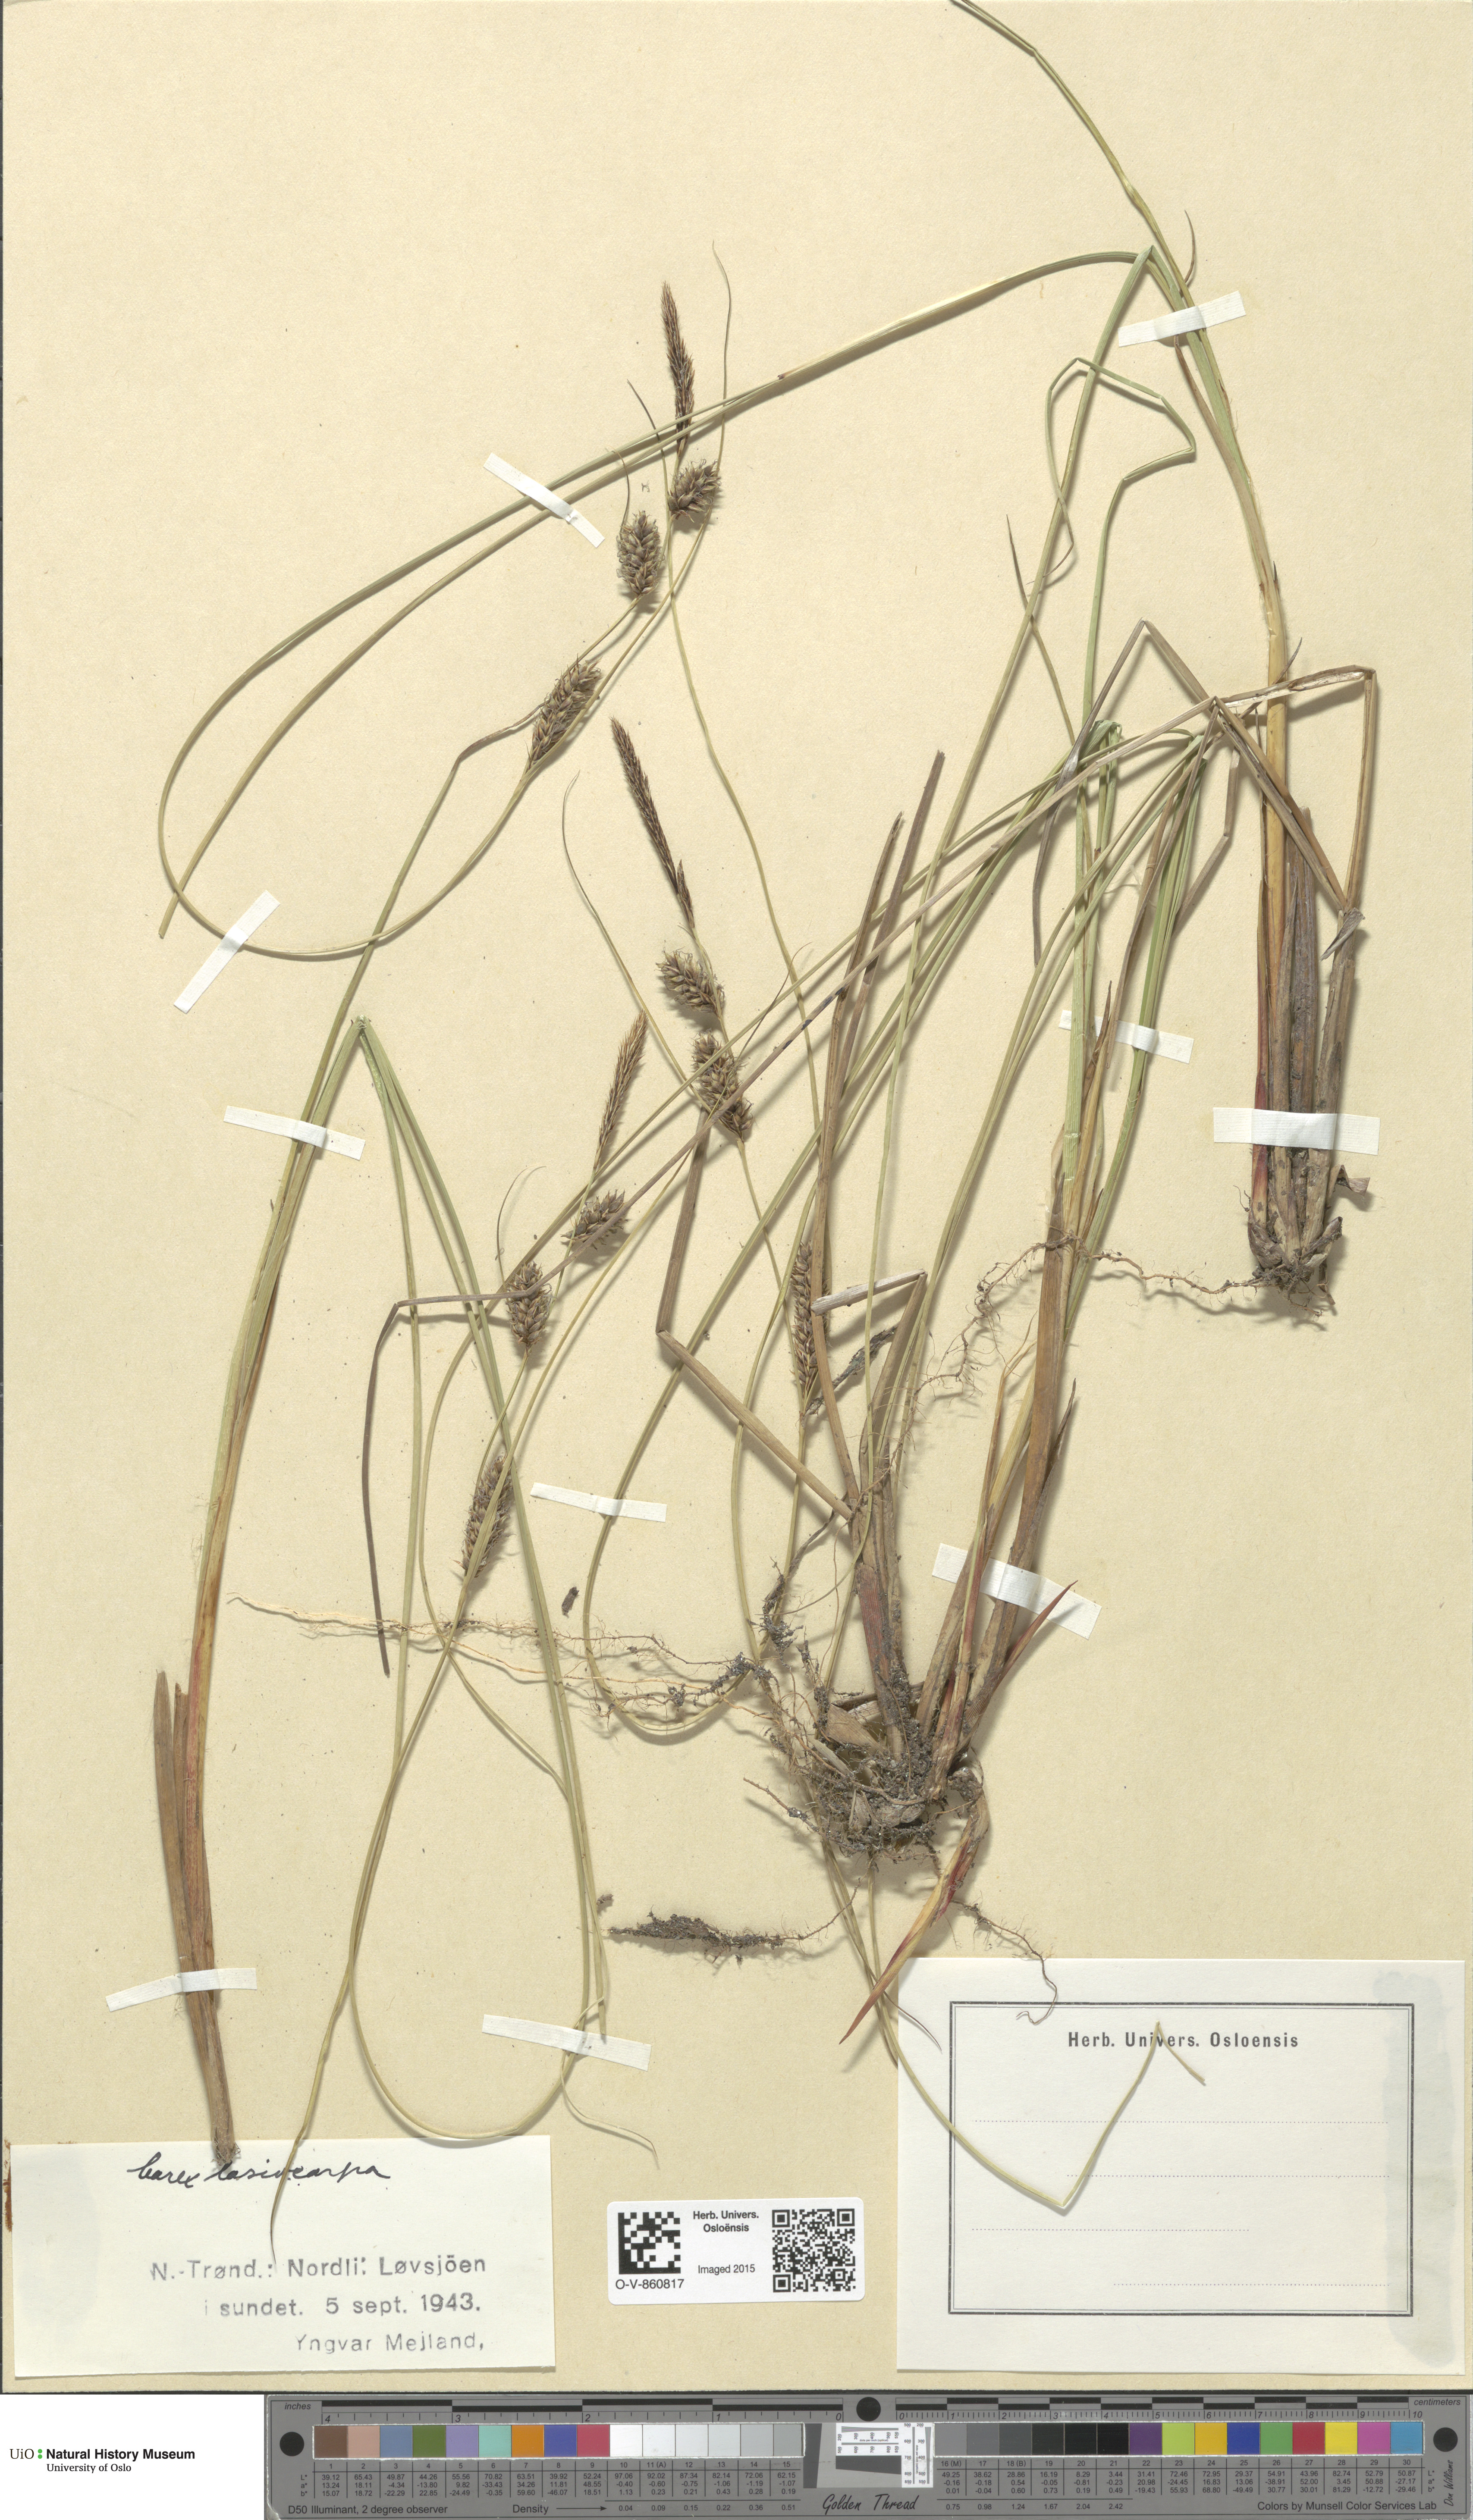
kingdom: Plantae
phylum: Tracheophyta
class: Liliopsida
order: Poales
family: Cyperaceae
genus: Carex
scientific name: Carex lasiocarpa
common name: Slender sedge
